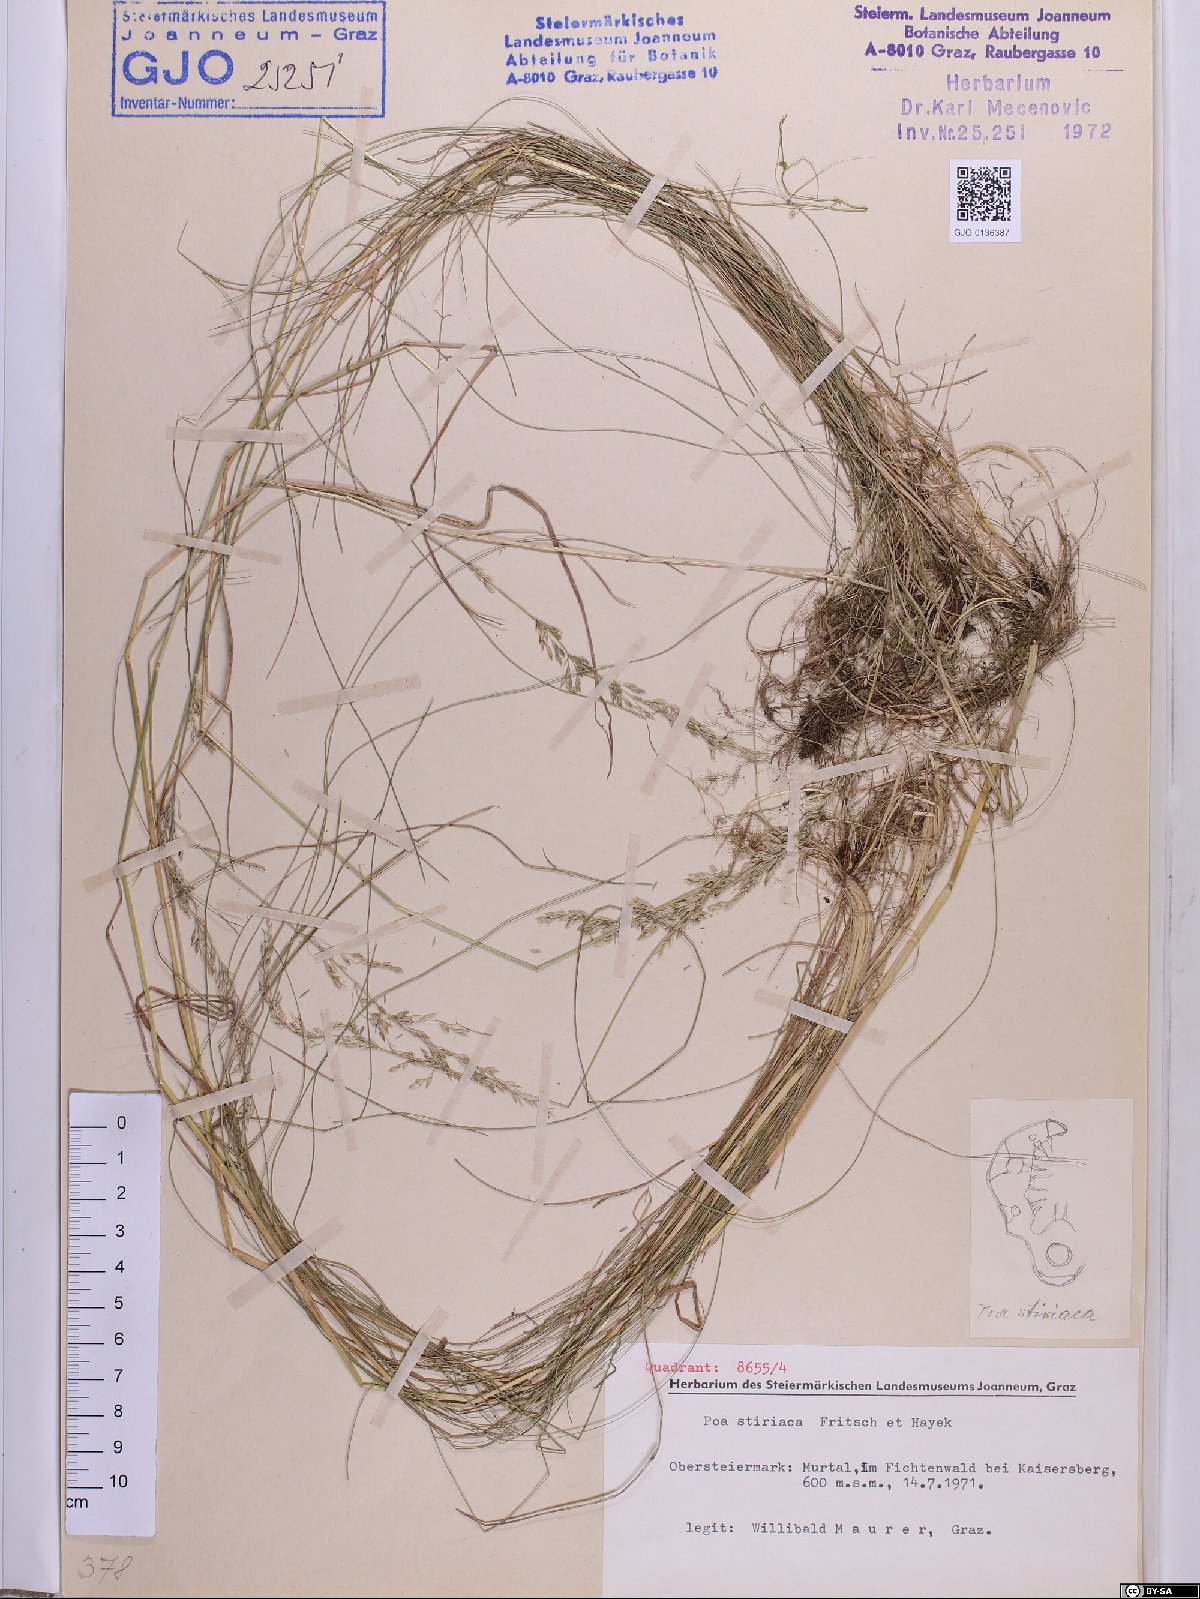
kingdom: Plantae
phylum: Tracheophyta
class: Liliopsida
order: Poales
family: Poaceae
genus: Poa
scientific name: Poa stiriaca
